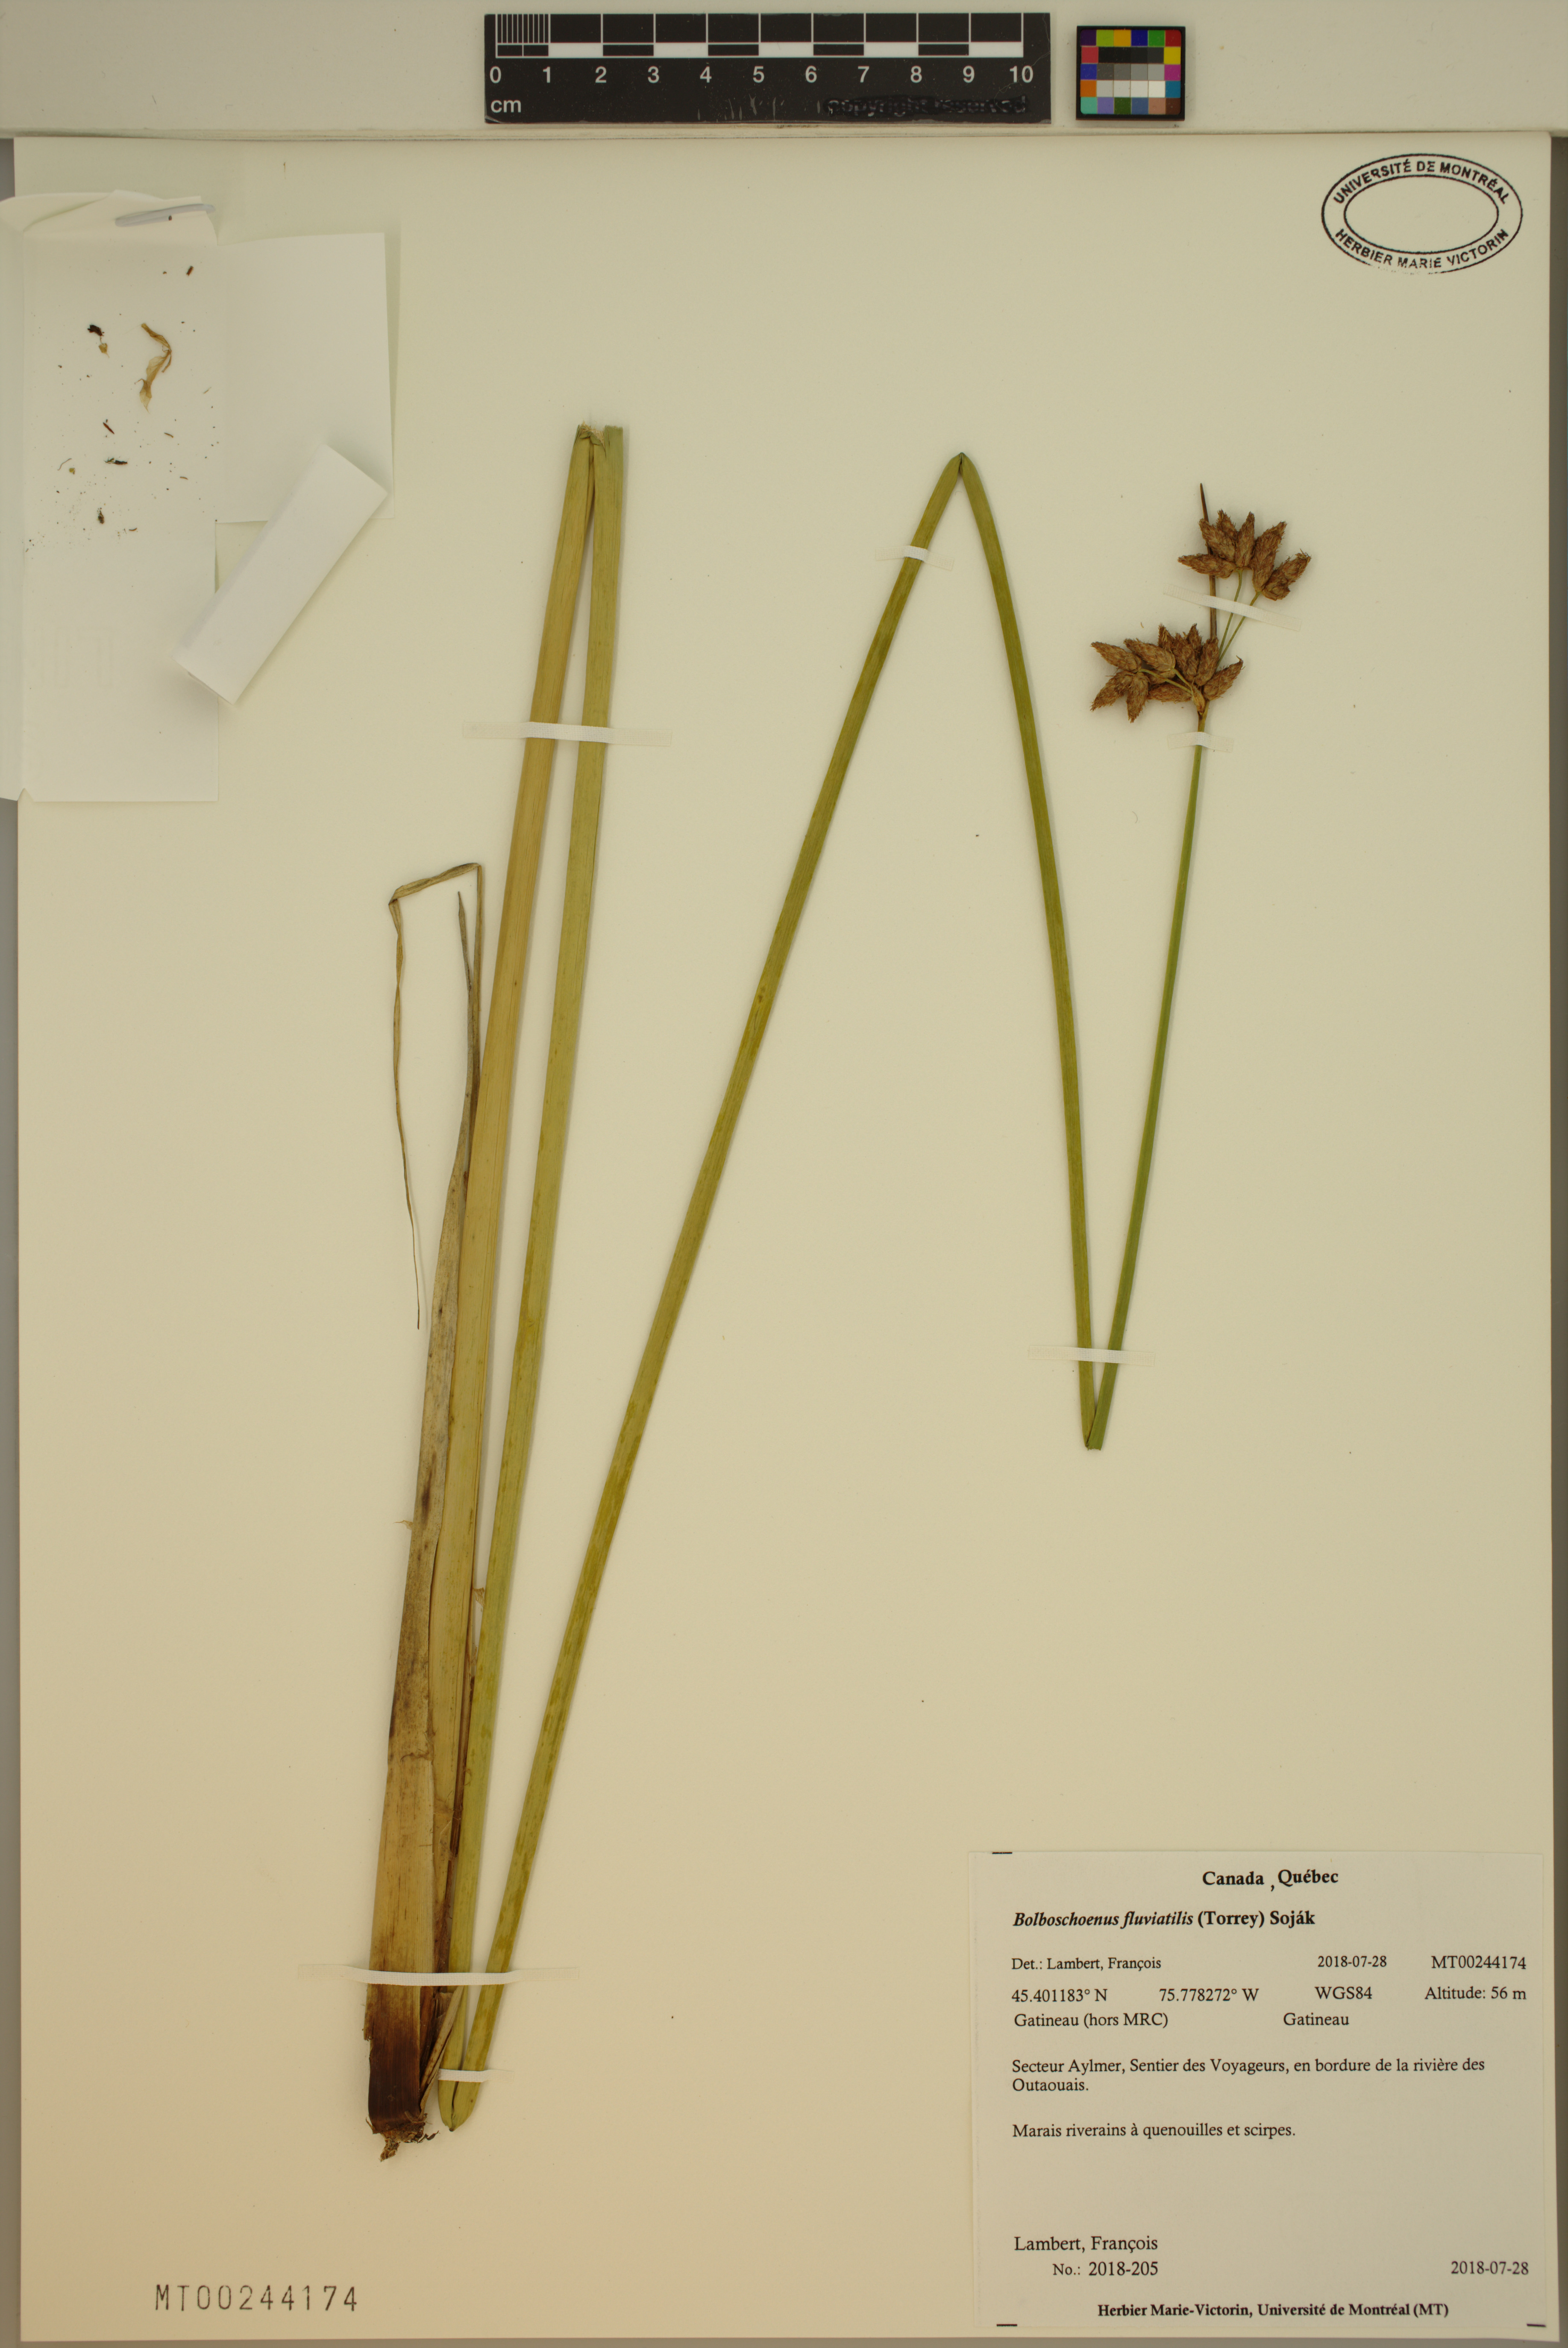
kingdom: Plantae
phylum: Tracheophyta
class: Liliopsida
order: Poales
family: Cyperaceae
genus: Bolboschoenus
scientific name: Bolboschoenus fluviatilis
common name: River bulrush
